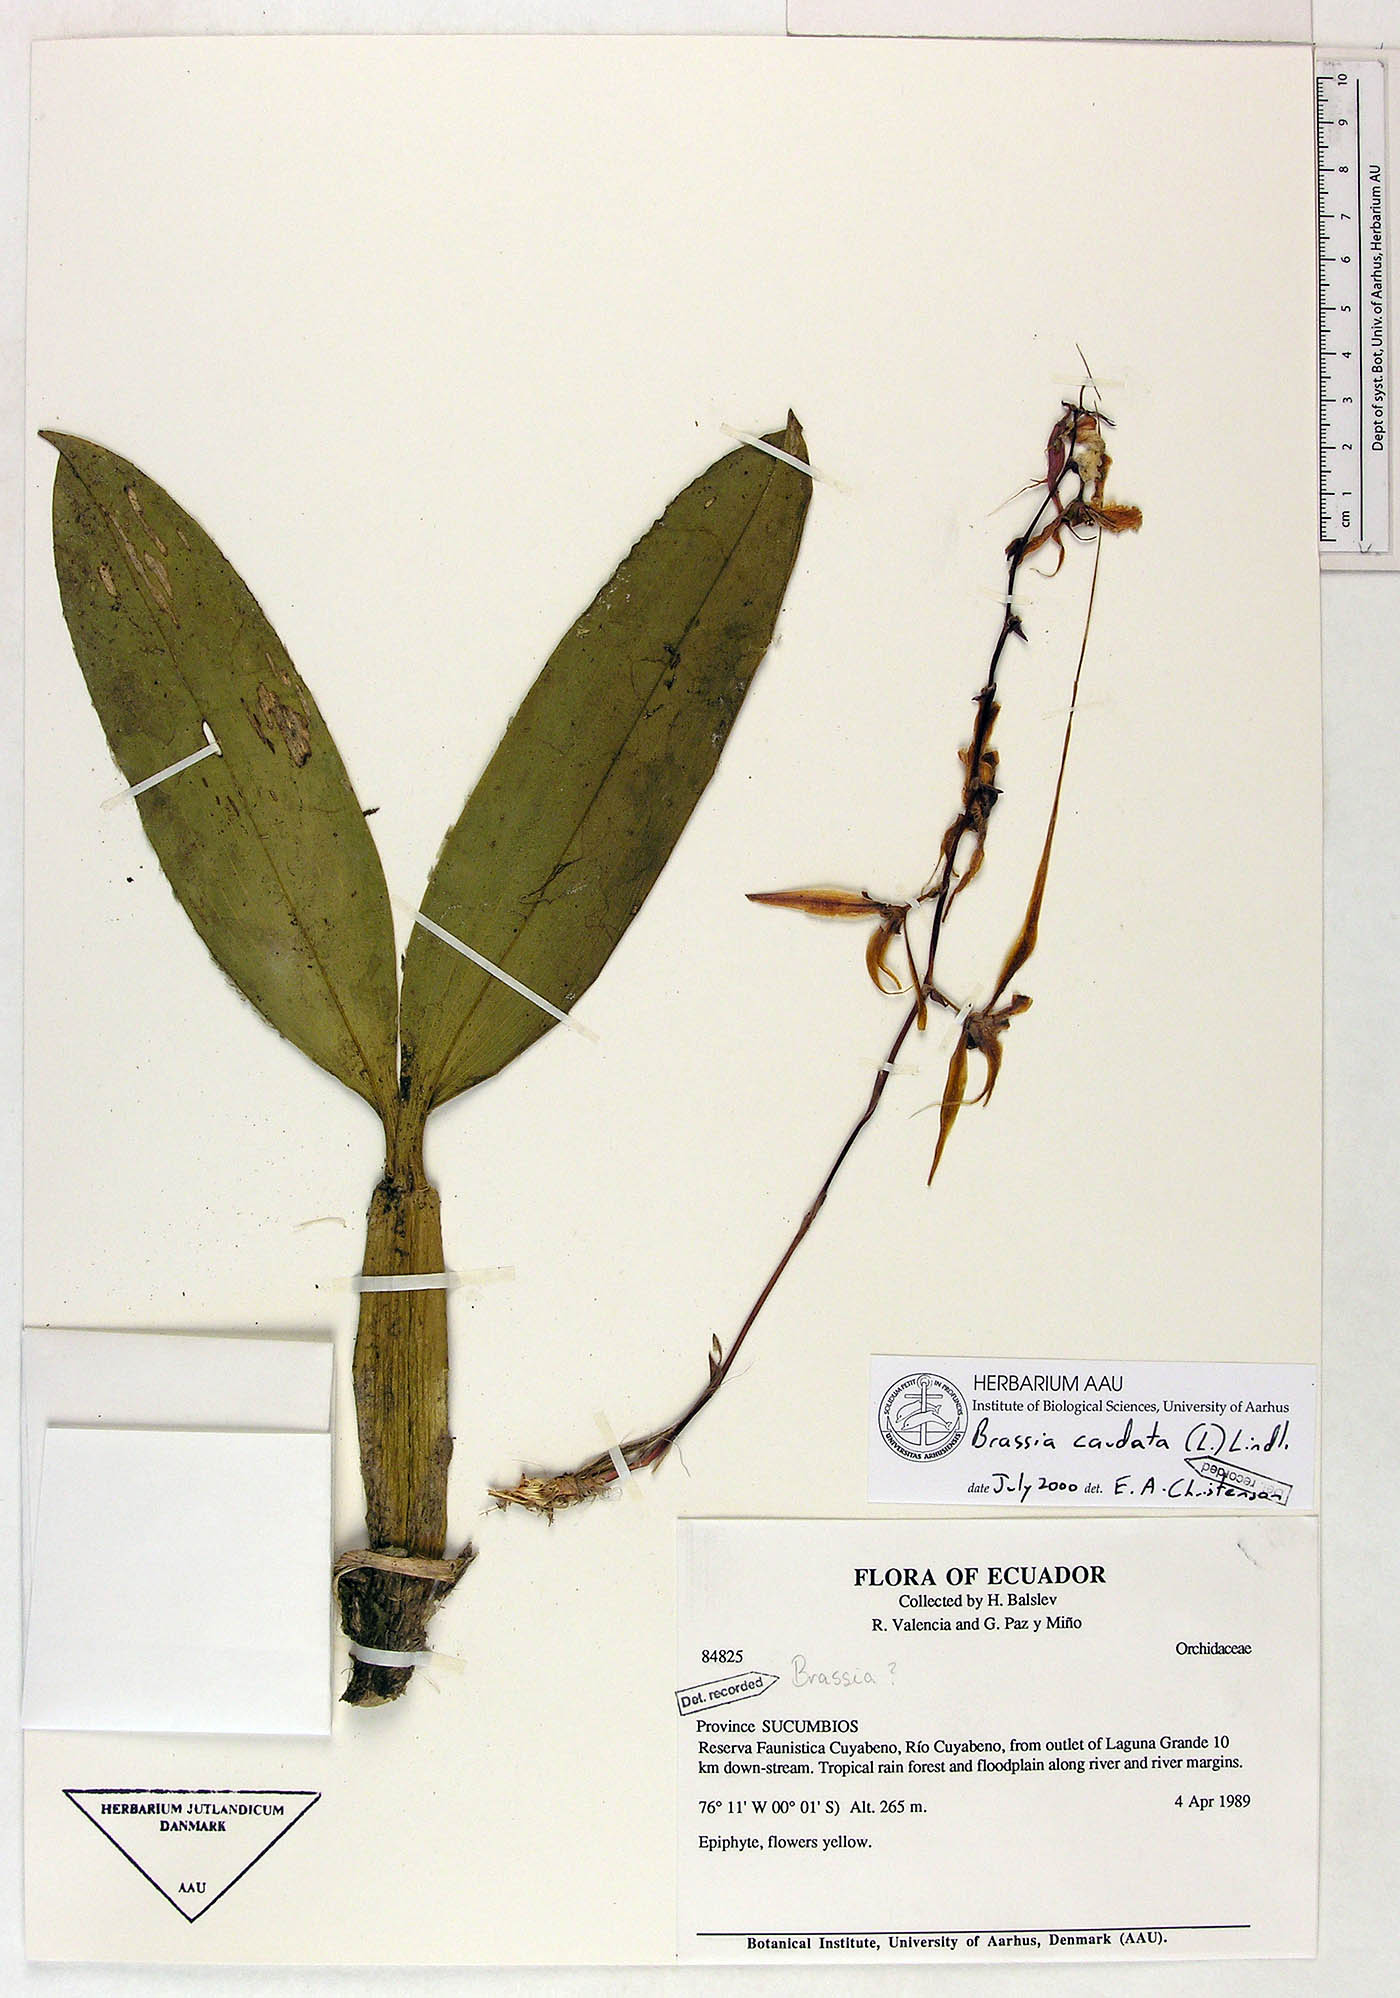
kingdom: Plantae
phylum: Tracheophyta
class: Liliopsida
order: Asparagales
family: Orchidaceae
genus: Brassia
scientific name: Brassia caudata
